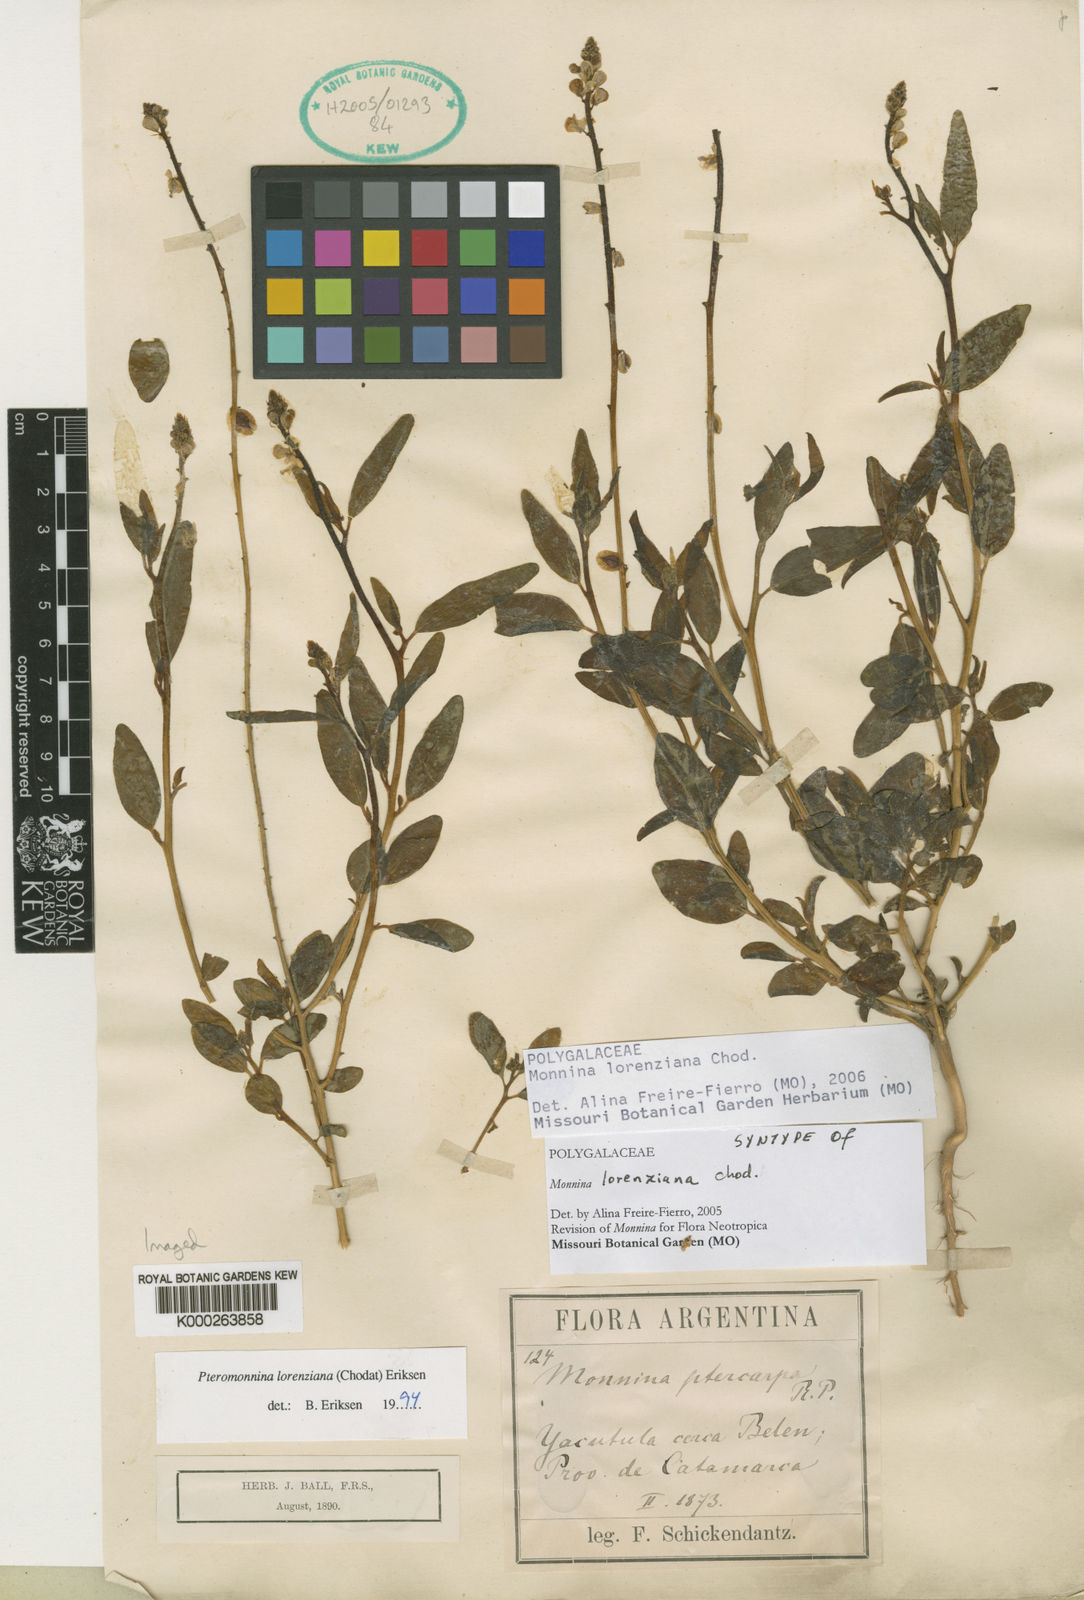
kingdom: Plantae
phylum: Tracheophyta
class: Magnoliopsida
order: Fabales
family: Polygalaceae
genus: Monnina
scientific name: Monnina lorenziana
